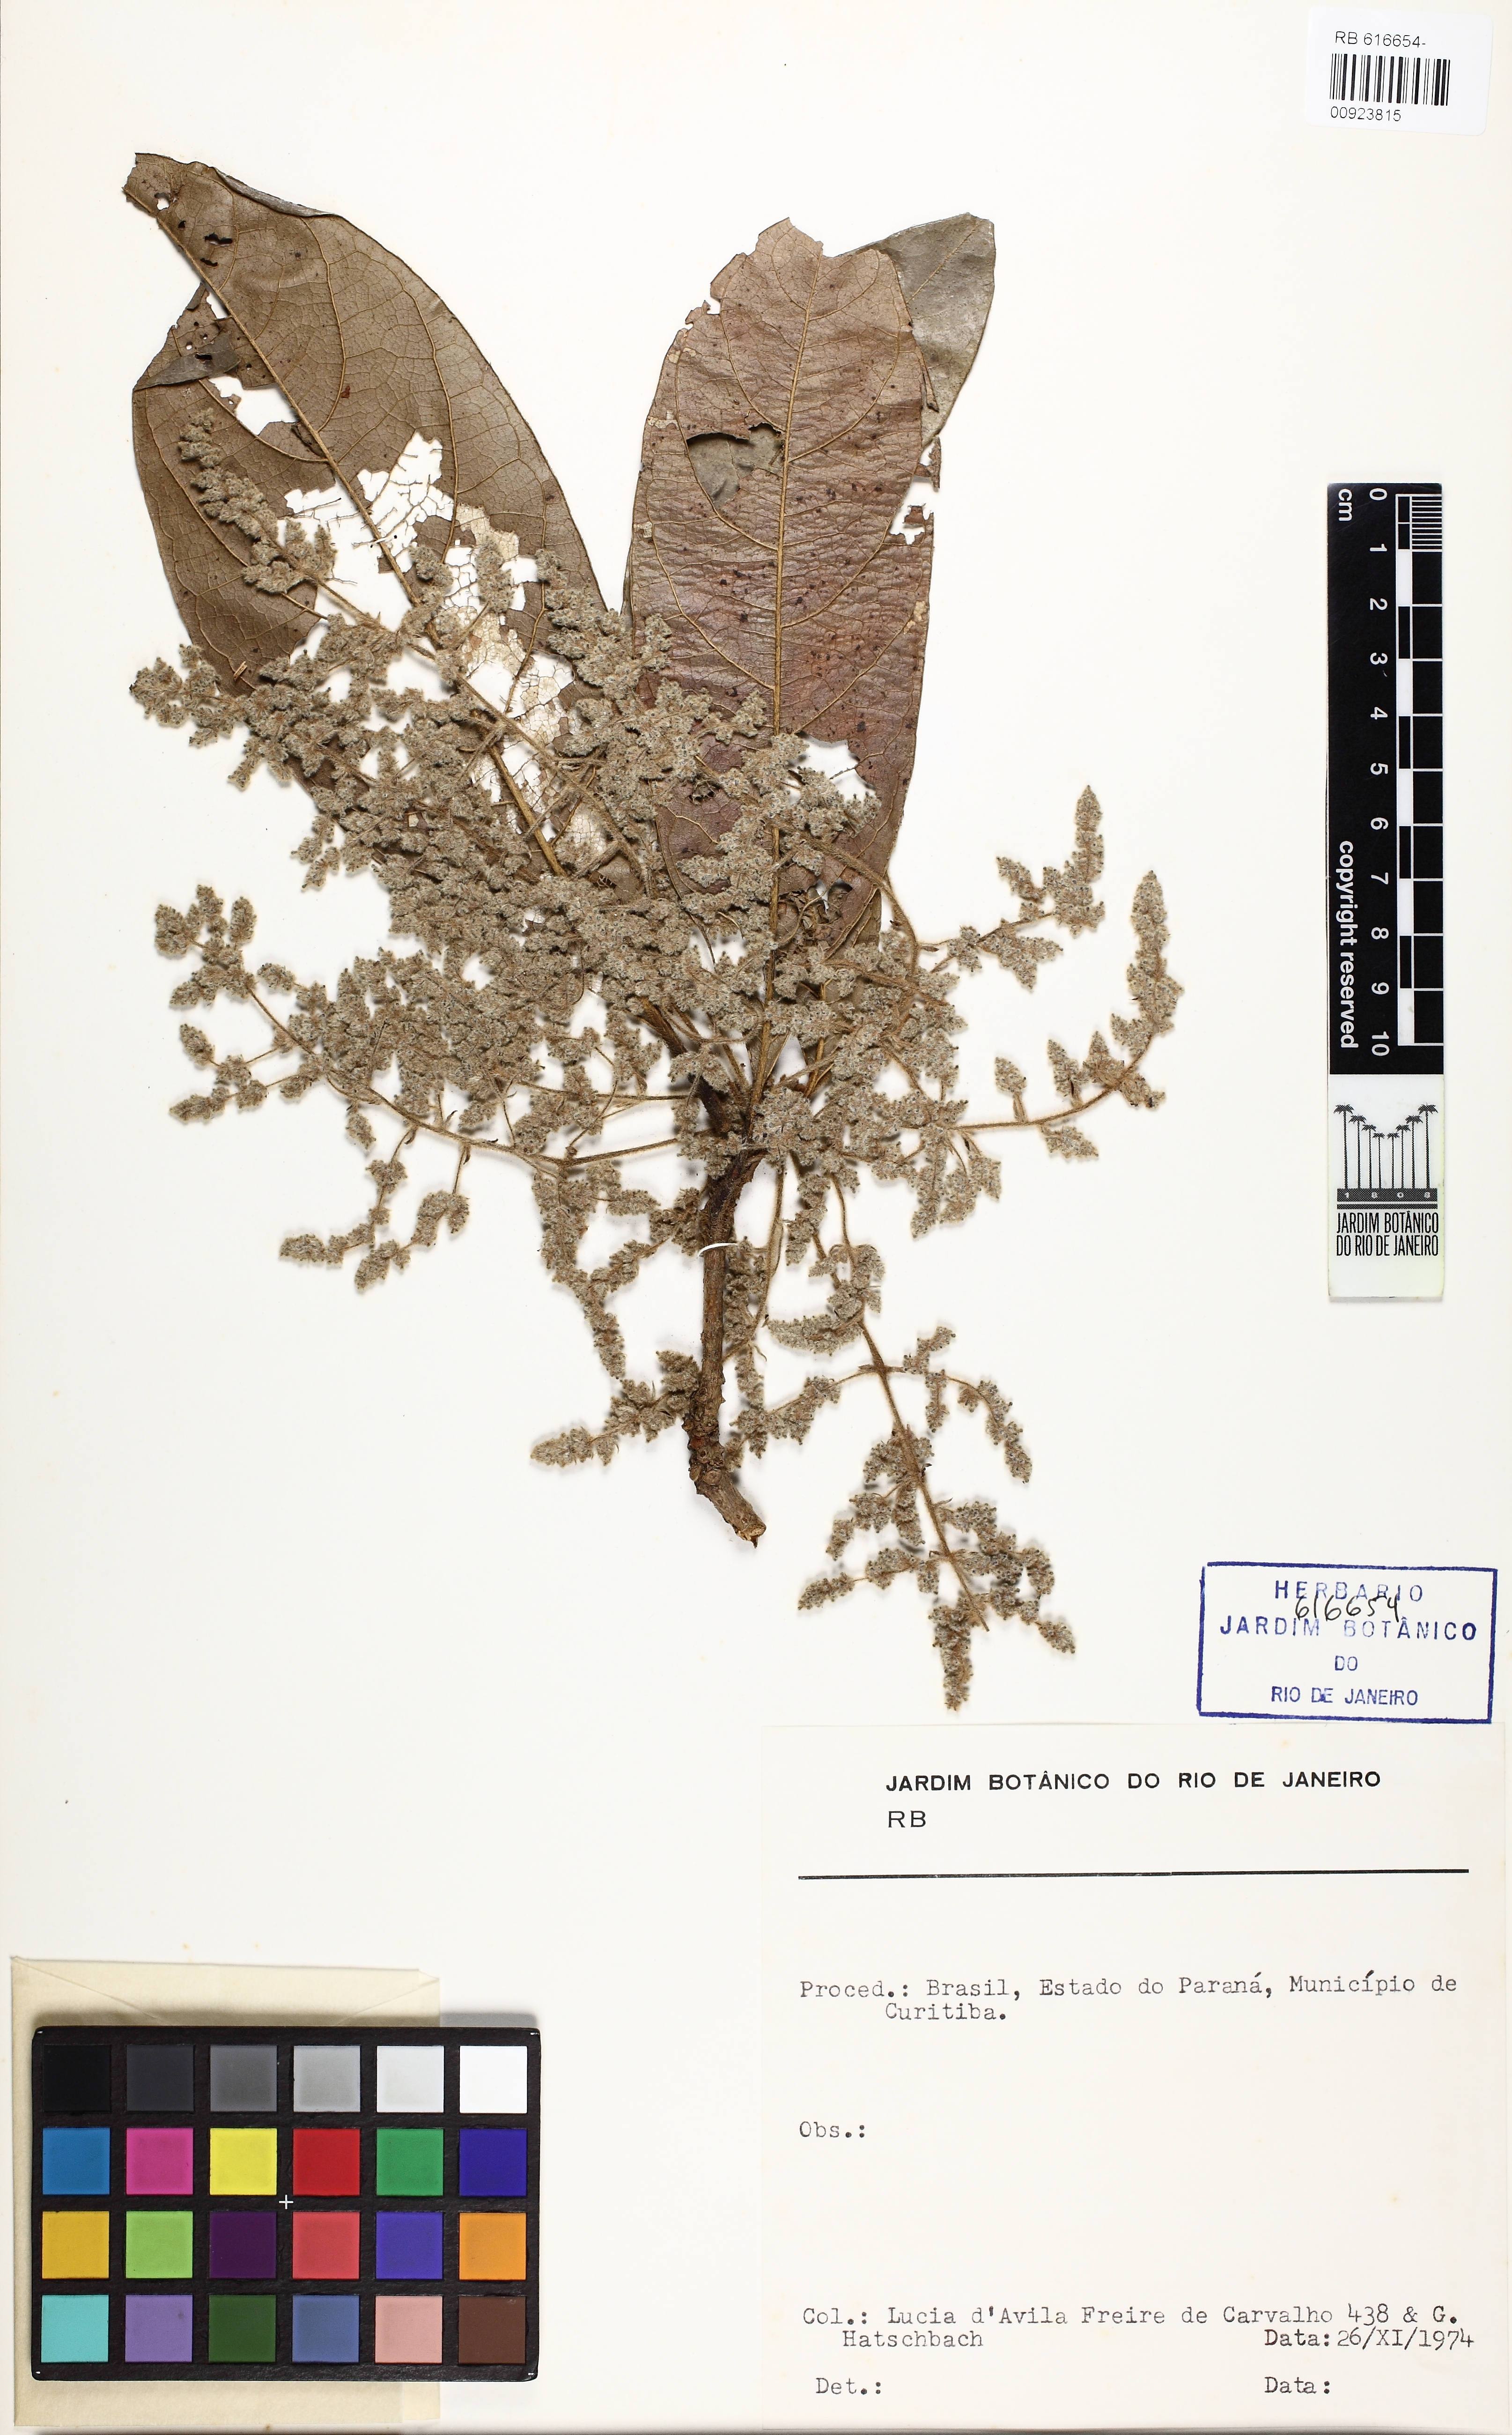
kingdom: Plantae
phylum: Tracheophyta
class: Magnoliopsida
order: Laurales
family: Lauraceae
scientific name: Lauraceae
